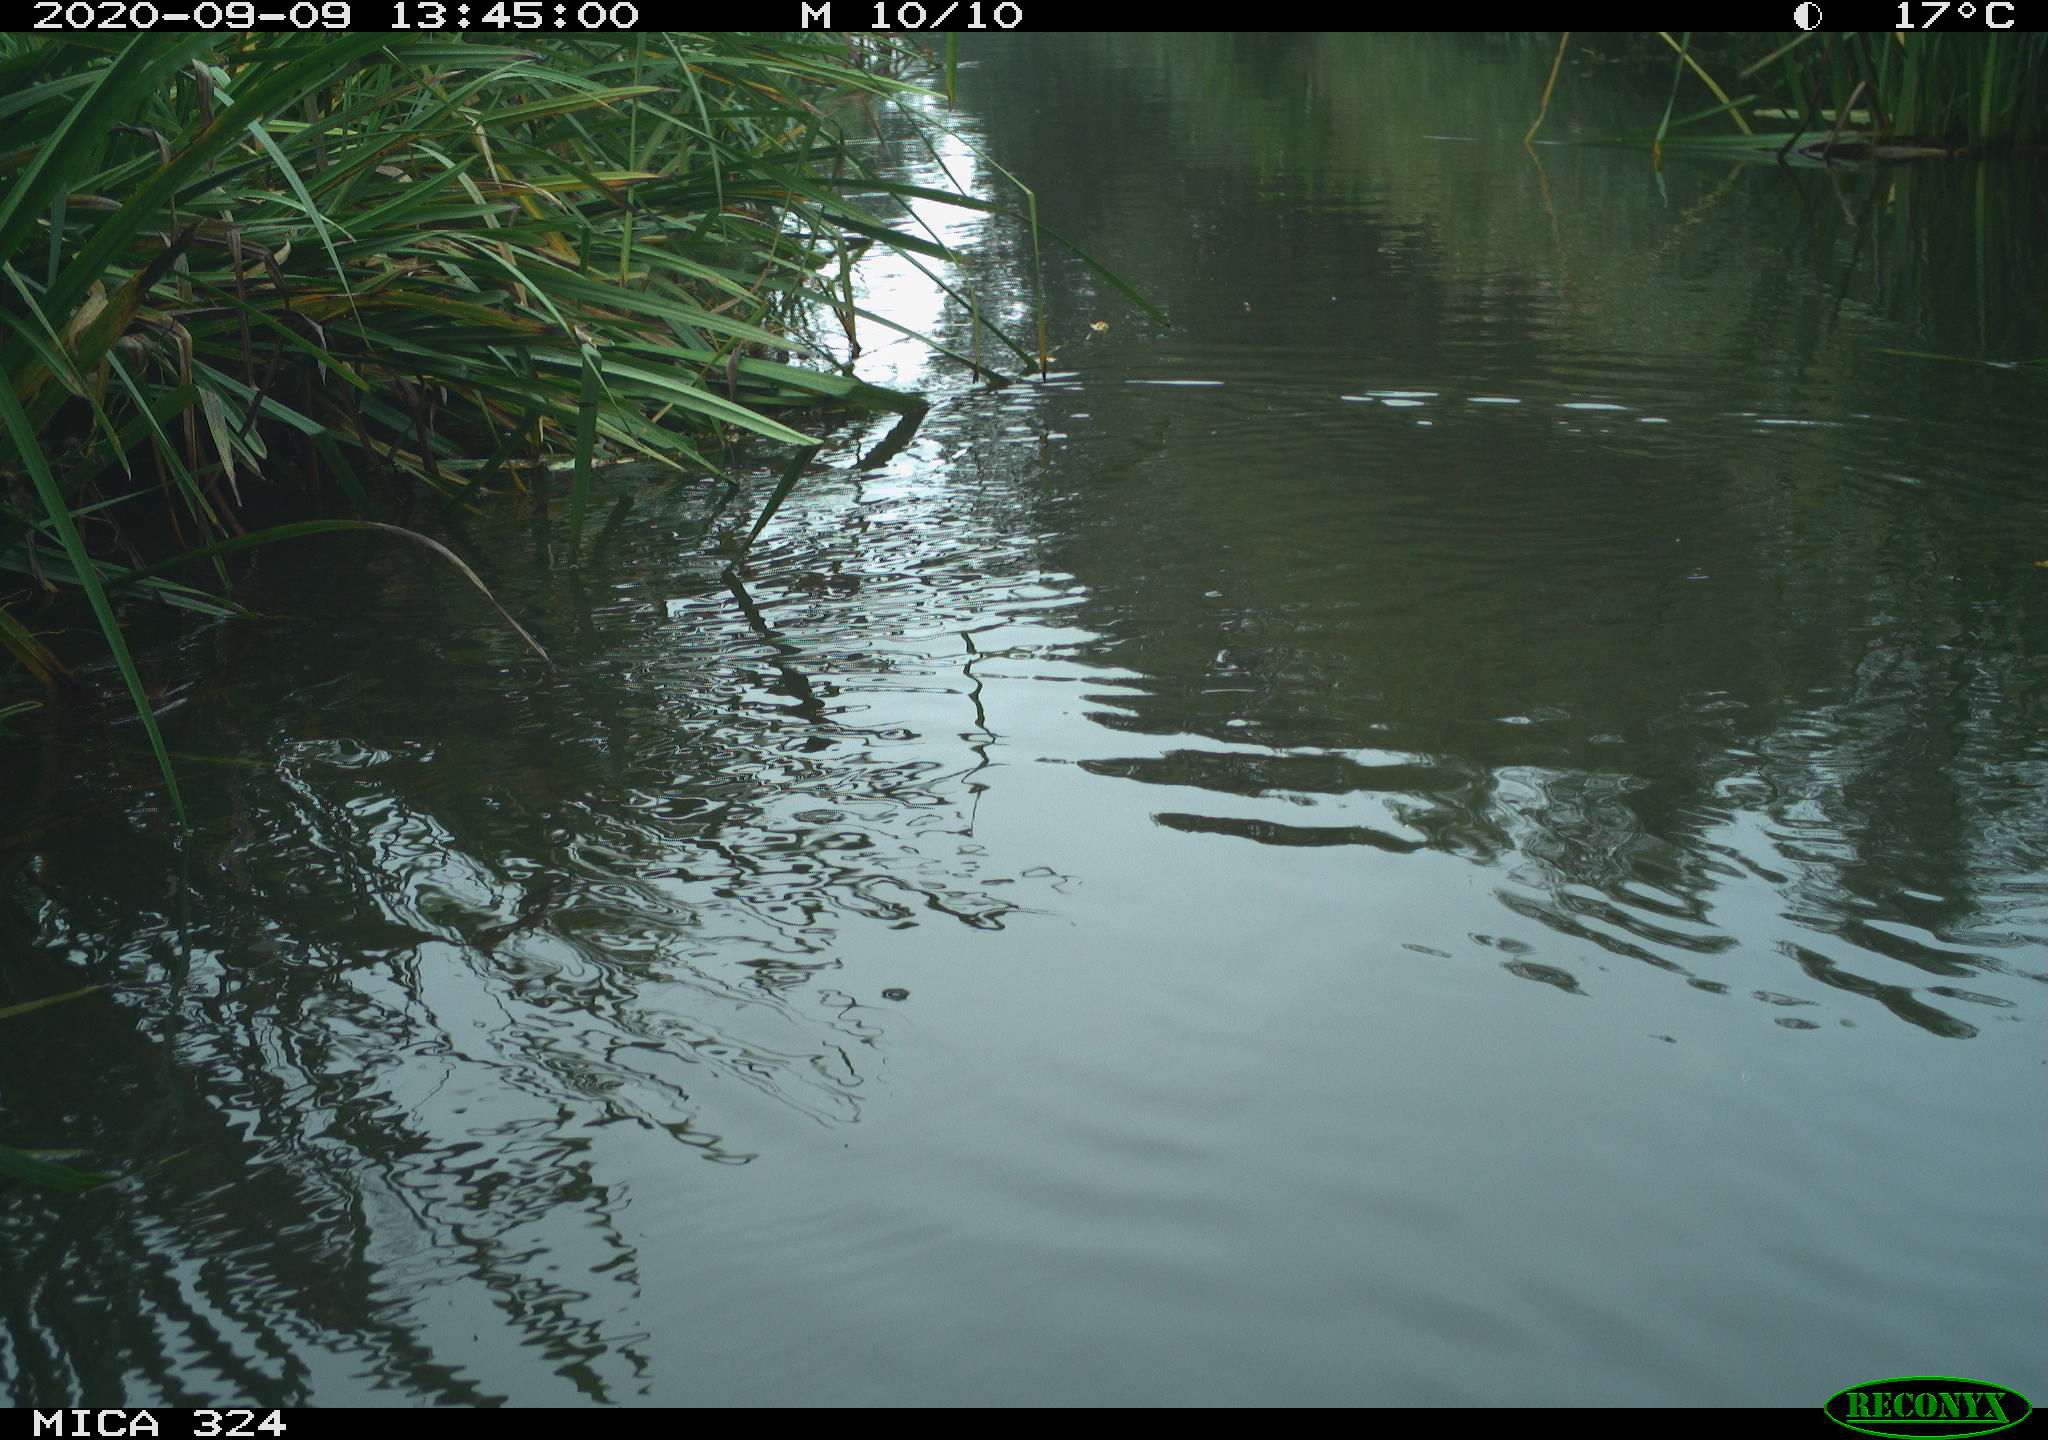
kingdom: Animalia
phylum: Chordata
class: Mammalia
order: Rodentia
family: Cricetidae
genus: Ondatra
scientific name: Ondatra zibethicus
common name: Muskrat
